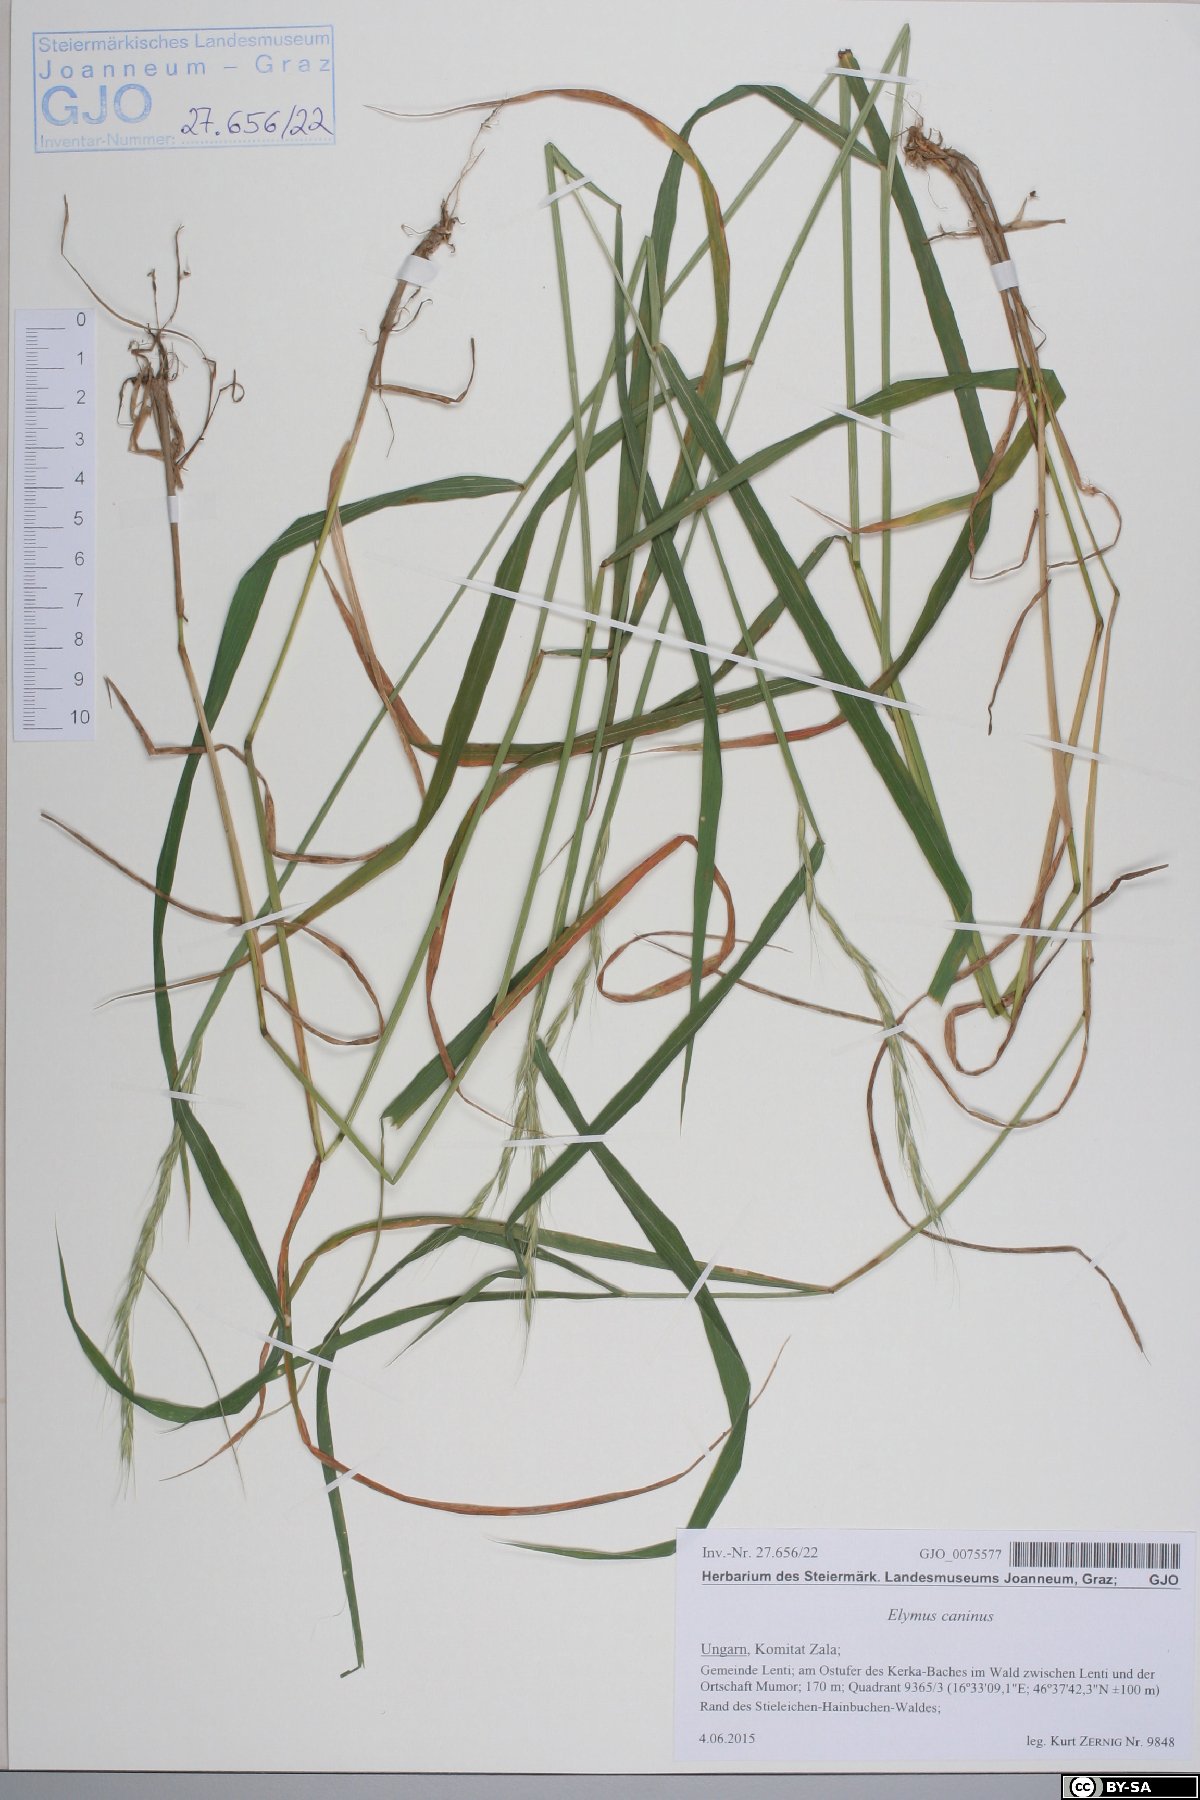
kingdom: Plantae
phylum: Tracheophyta
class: Liliopsida
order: Poales
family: Poaceae
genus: Elymus
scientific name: Elymus caninus
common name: Bearded couch
